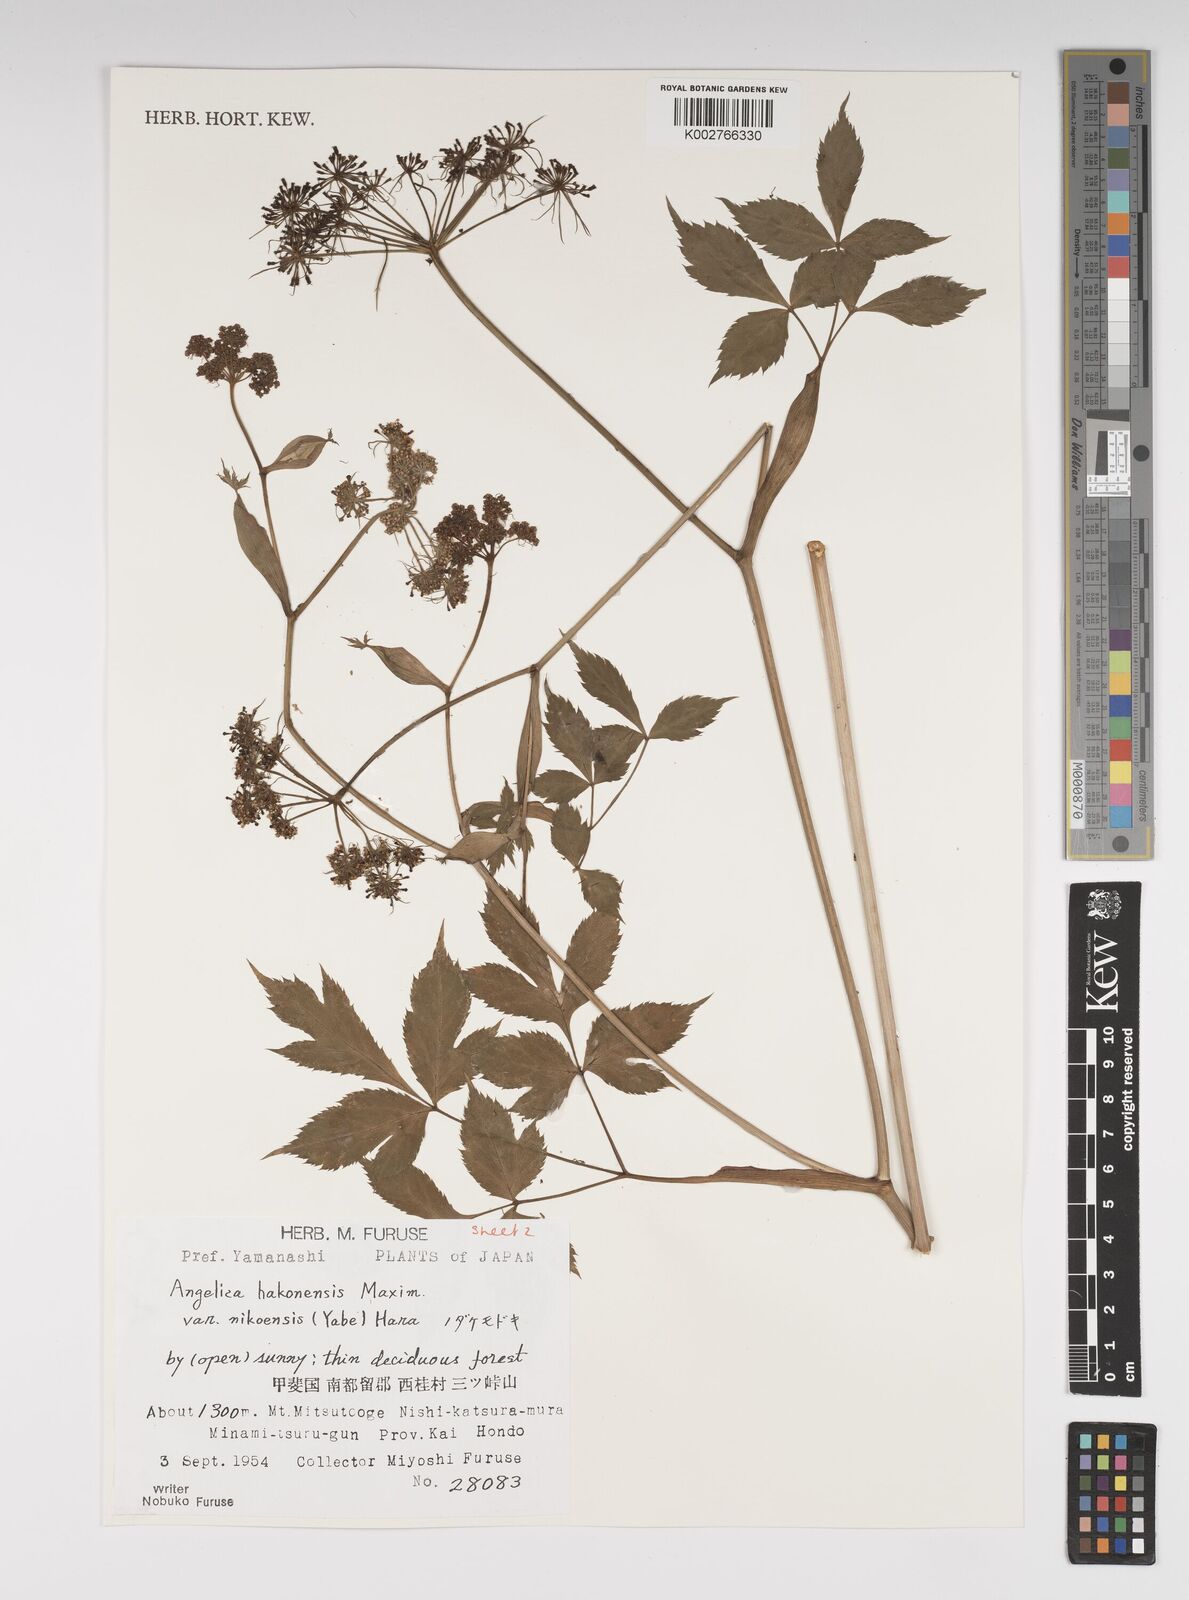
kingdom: Plantae
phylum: Tracheophyta
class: Magnoliopsida
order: Apiales
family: Apiaceae
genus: Angelica
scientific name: Angelica hakonensis
